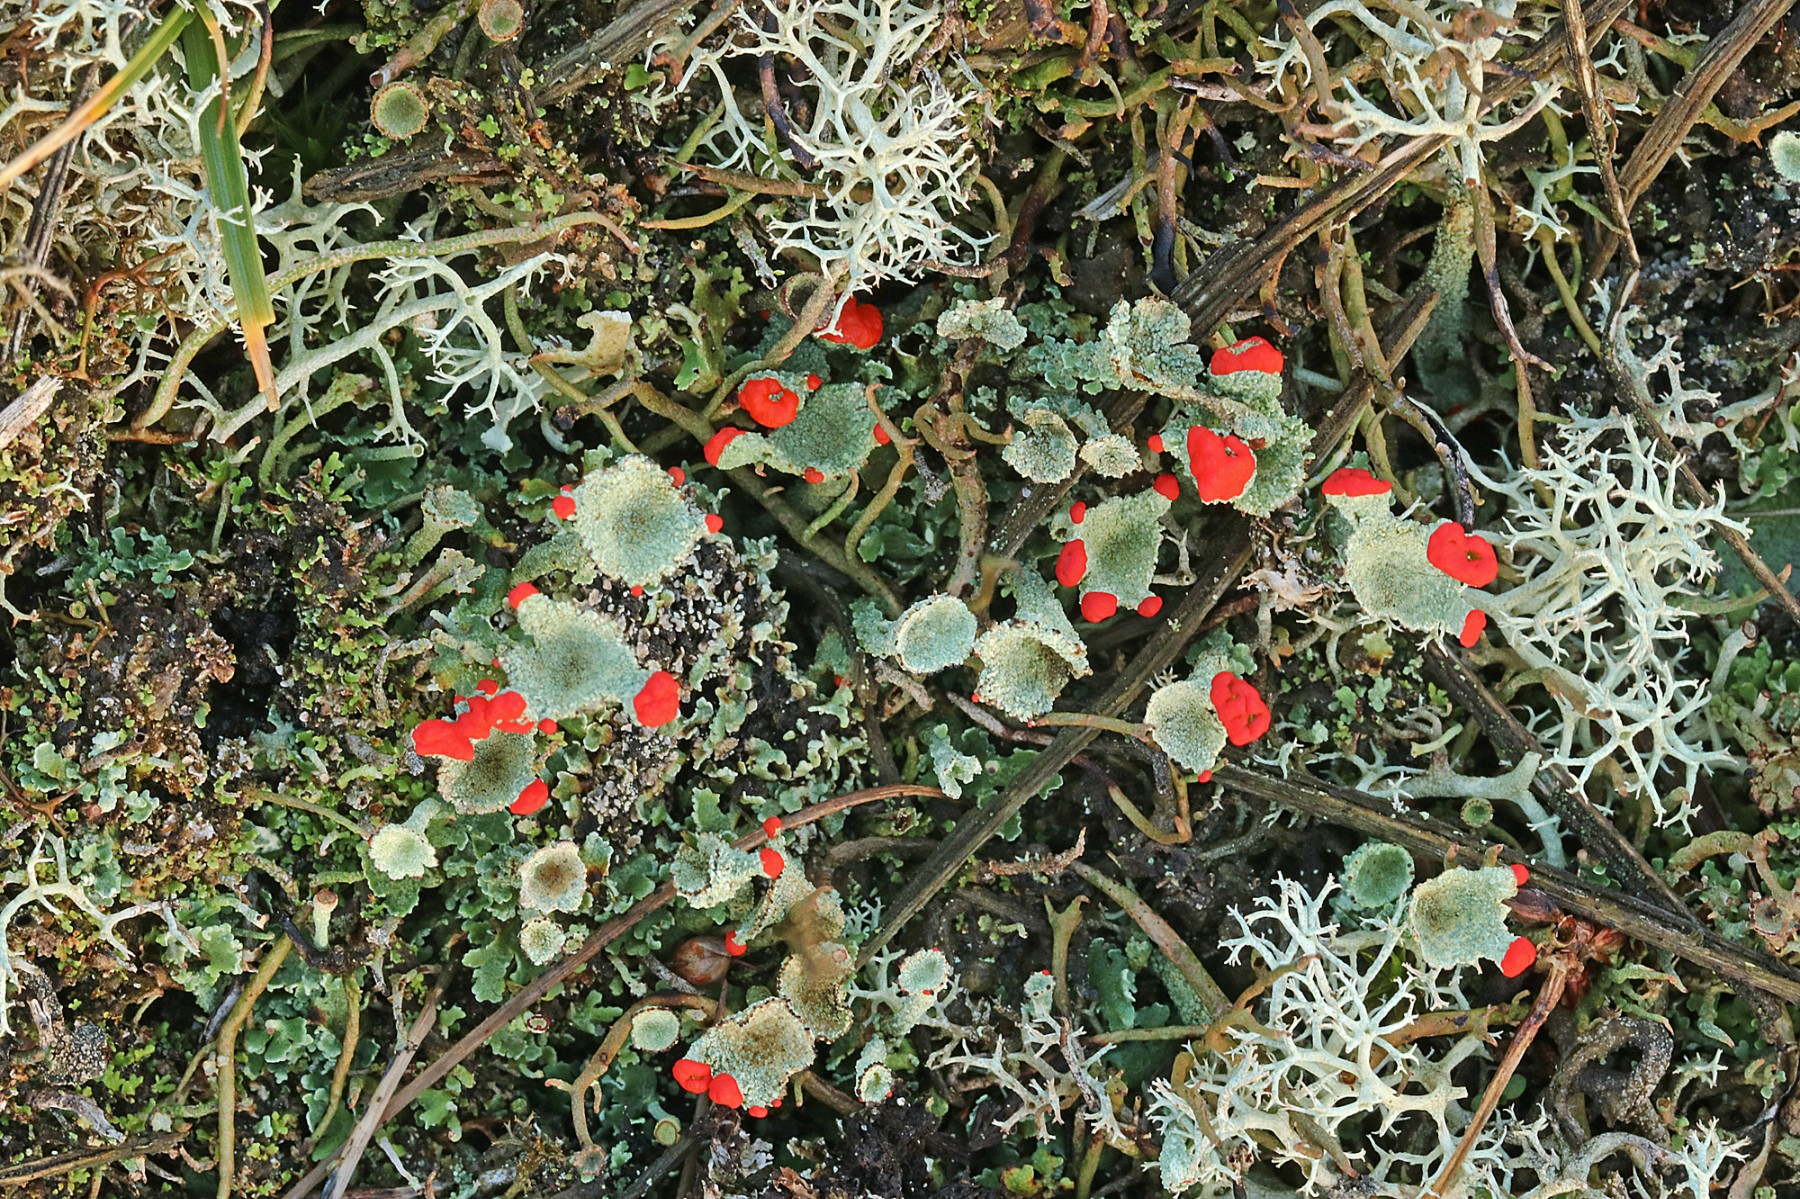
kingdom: Fungi
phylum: Ascomycota
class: Lecanoromycetes
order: Lecanorales
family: Cladoniaceae
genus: Cladonia
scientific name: Cladonia diversa
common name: rød bægerlav
